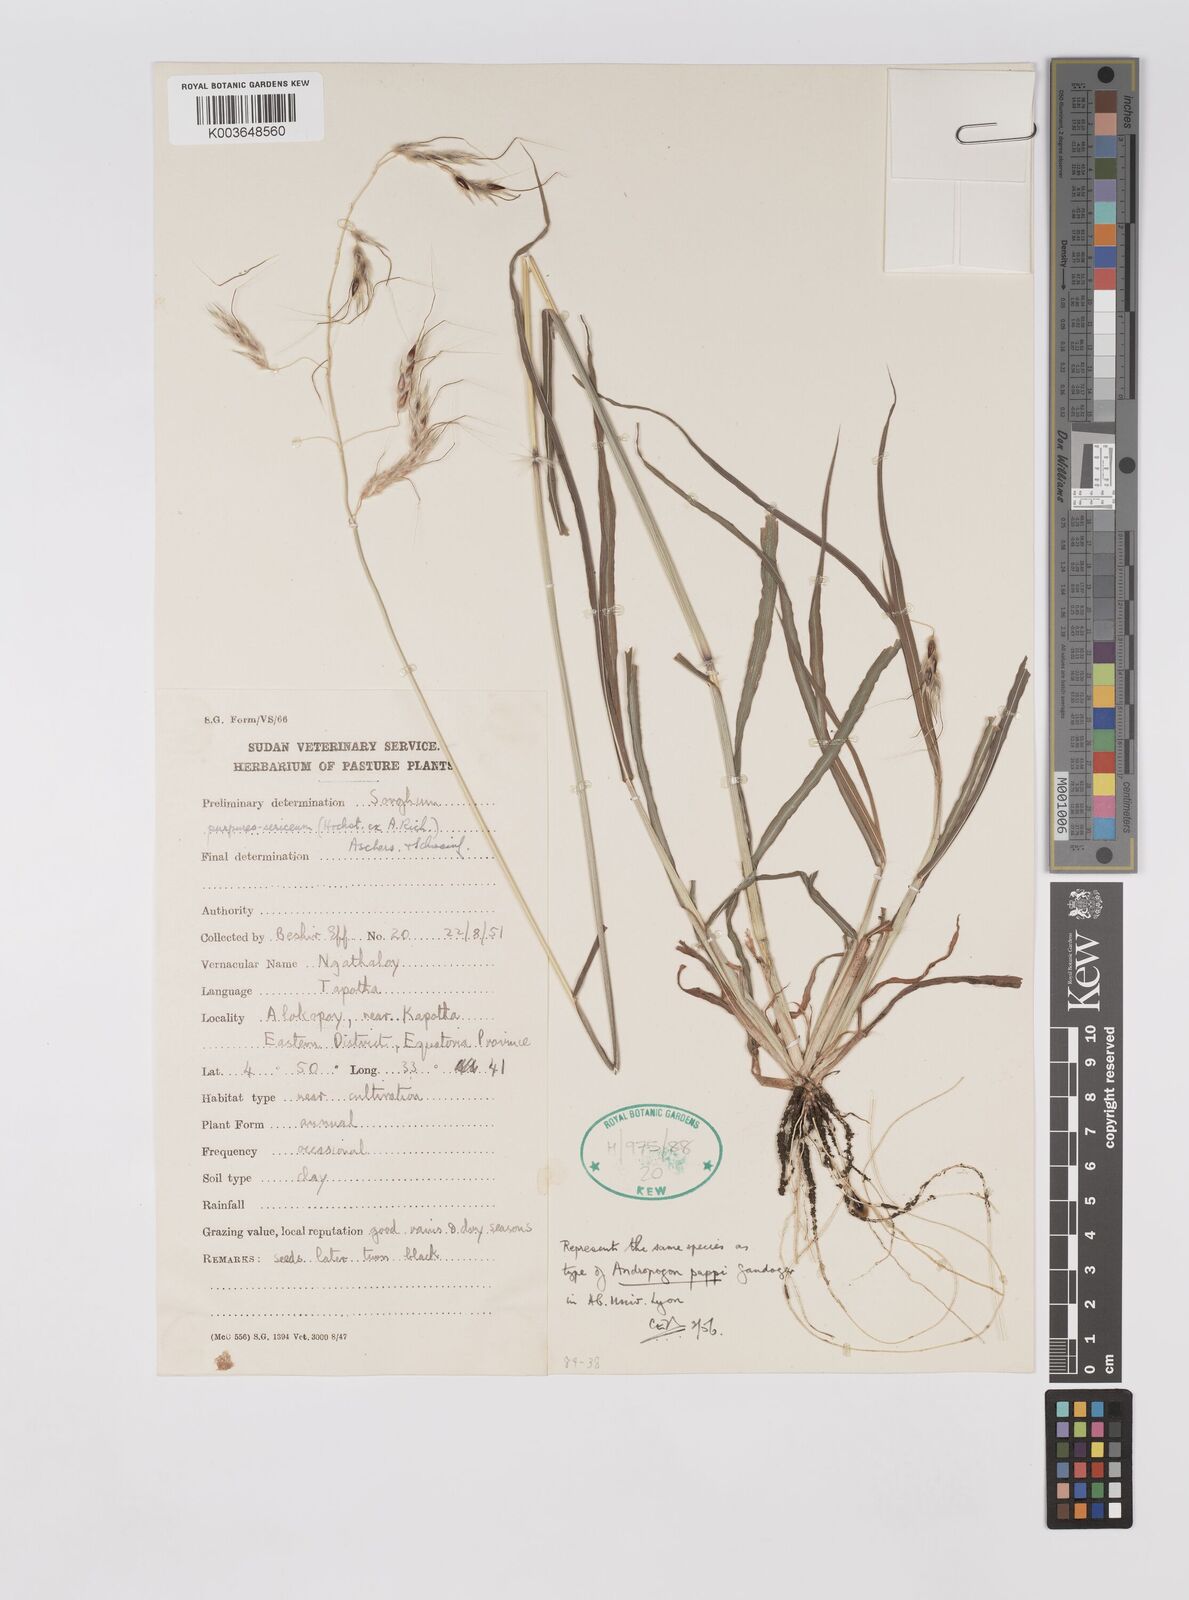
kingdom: Plantae
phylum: Tracheophyta
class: Liliopsida
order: Poales
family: Poaceae
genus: Sarga
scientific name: Sarga purpureosericea
